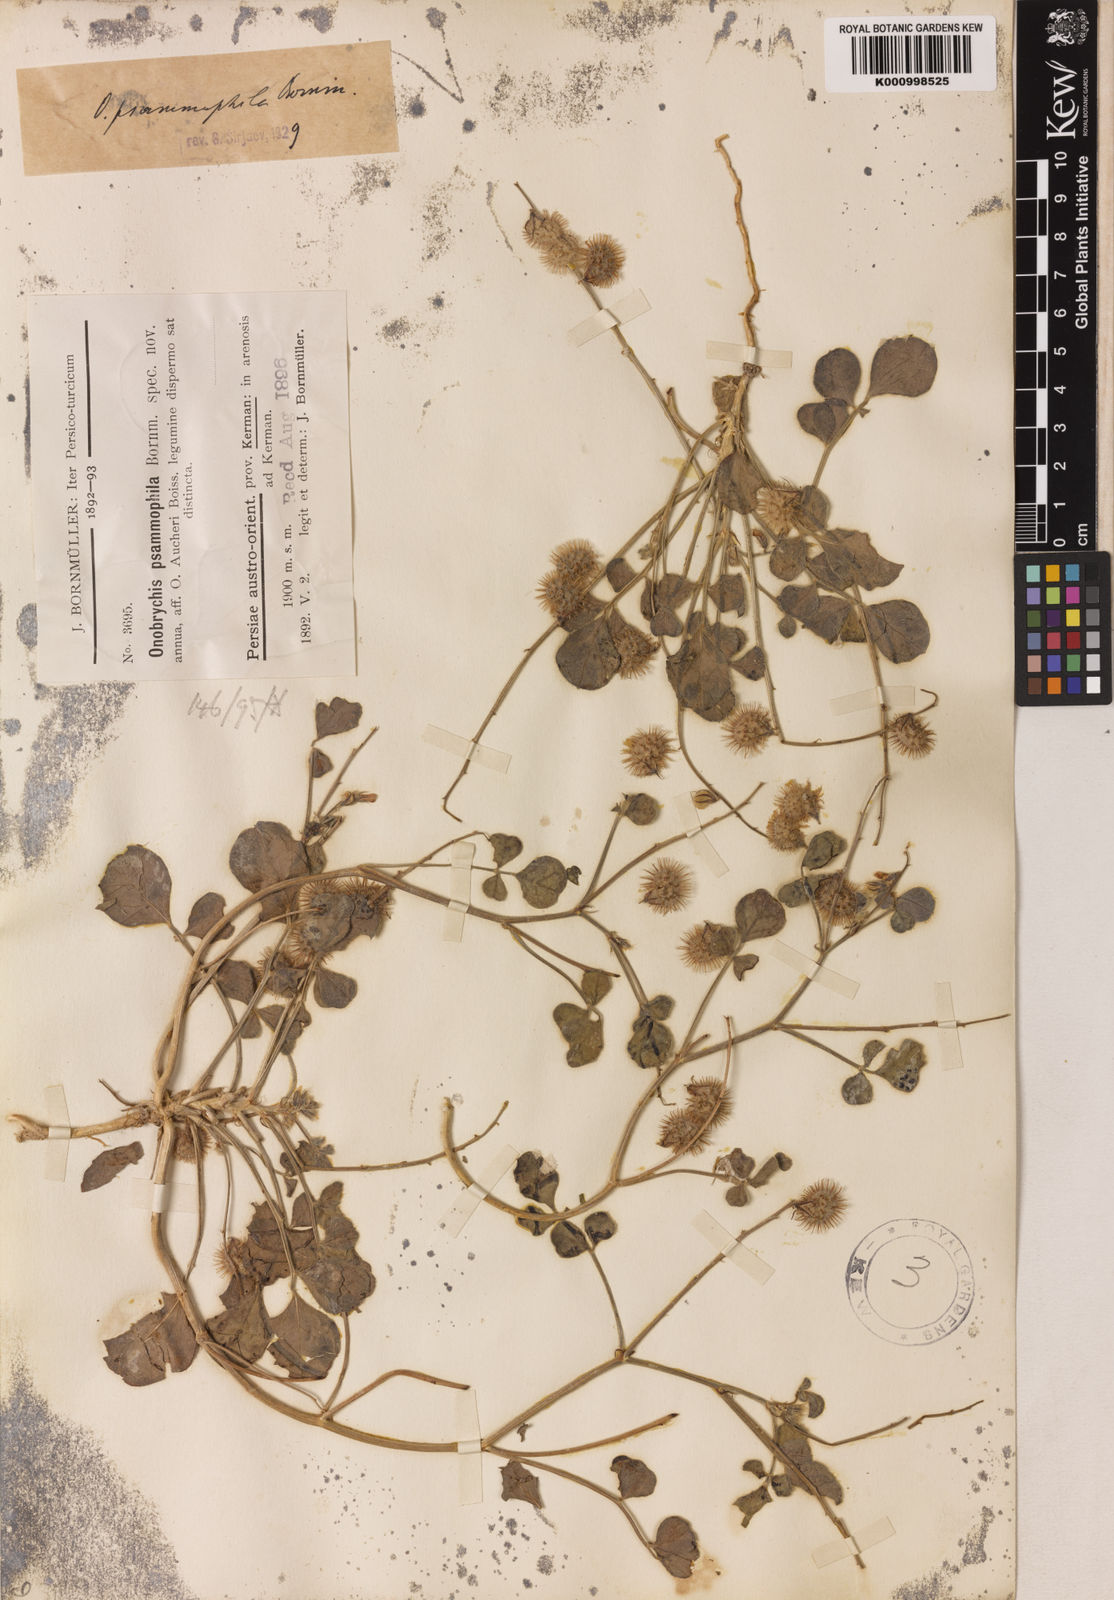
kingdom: Plantae
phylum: Tracheophyta
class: Magnoliopsida
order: Fabales
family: Fabaceae
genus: Onobrychis
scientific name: Onobrychis aucheri
